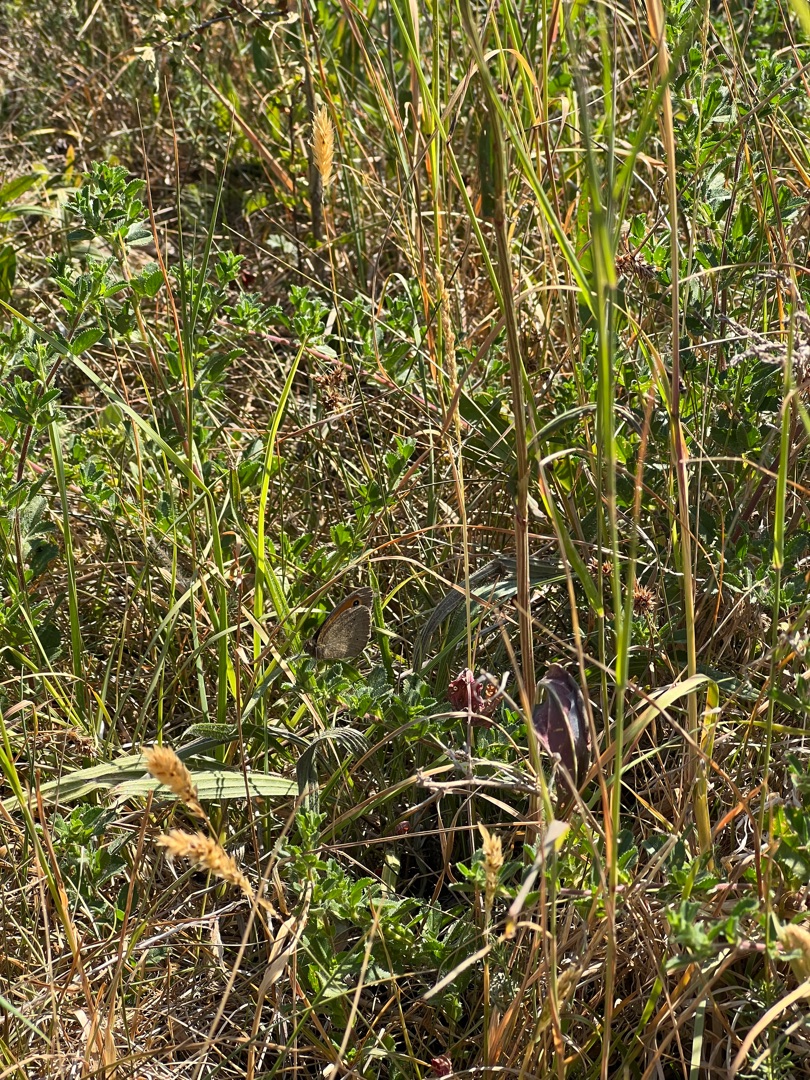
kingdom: Animalia
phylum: Arthropoda
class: Insecta
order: Lepidoptera
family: Nymphalidae
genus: Maniola
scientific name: Maniola jurtina
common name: Græsrandøje
